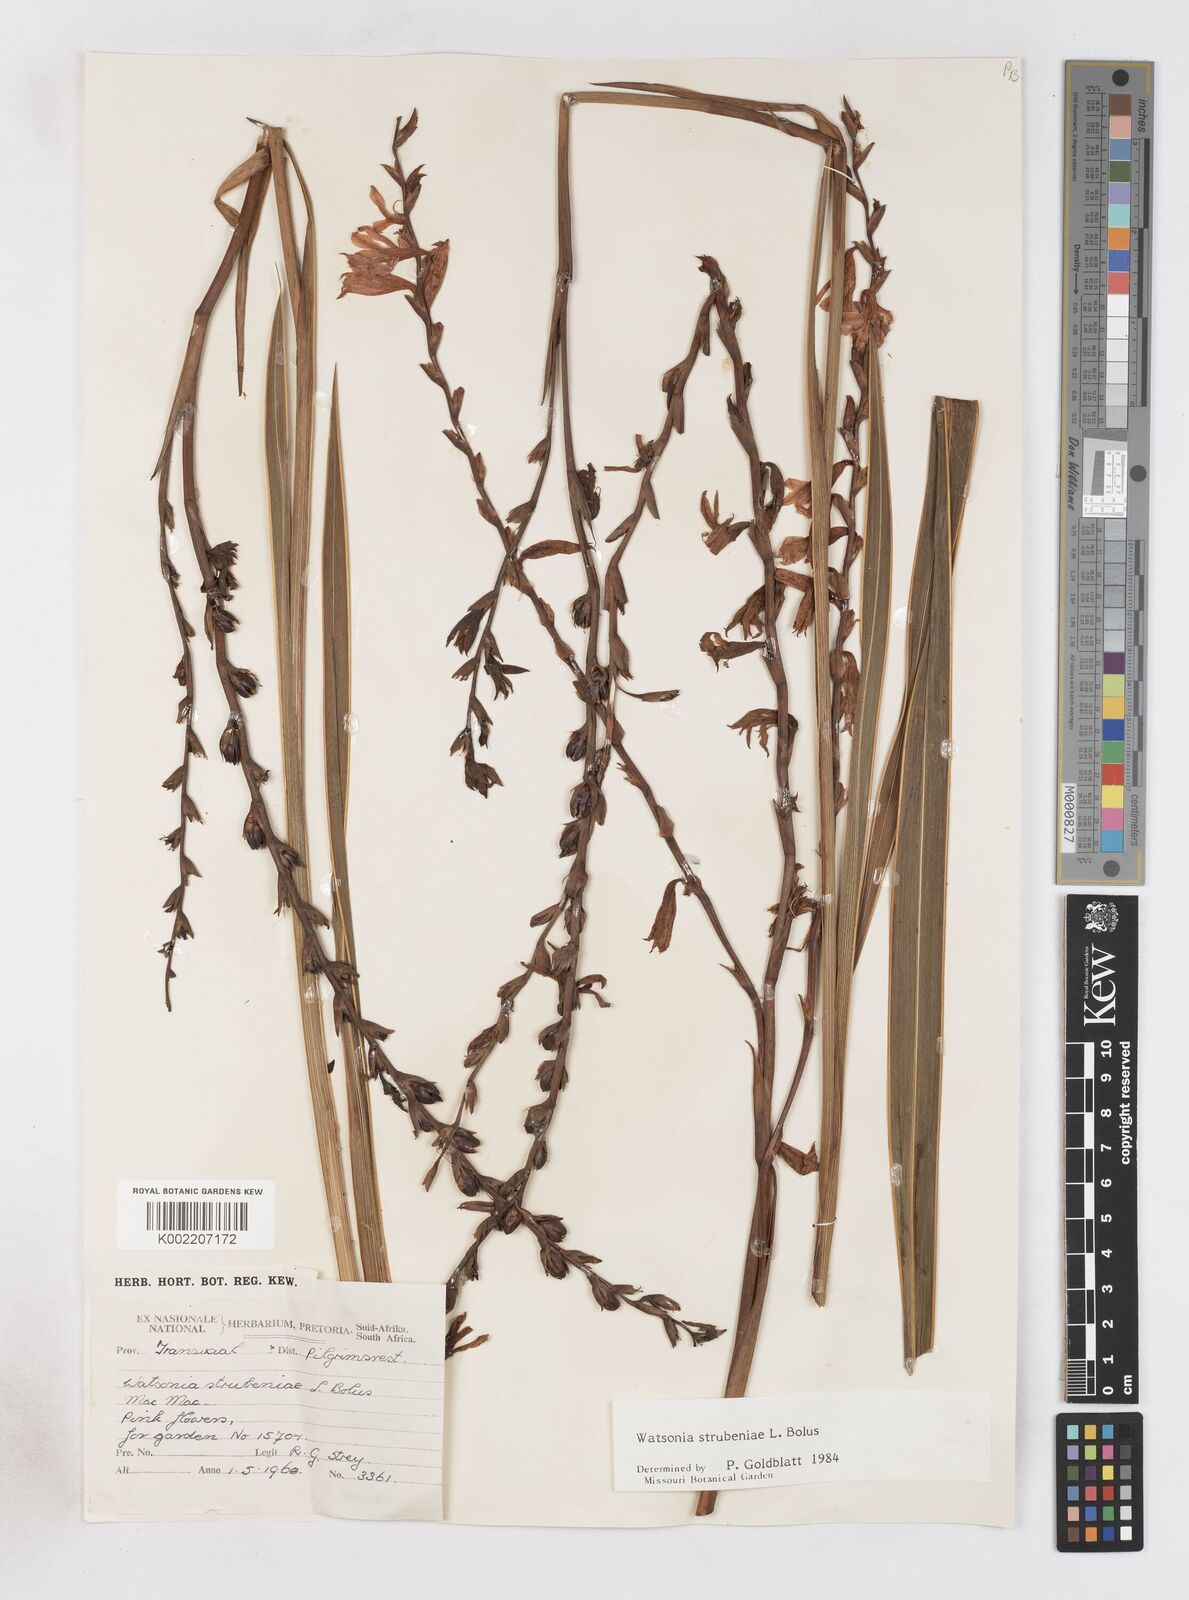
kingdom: Plantae
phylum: Tracheophyta
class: Liliopsida
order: Asparagales
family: Iridaceae
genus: Watsonia
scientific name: Watsonia strubeniae
